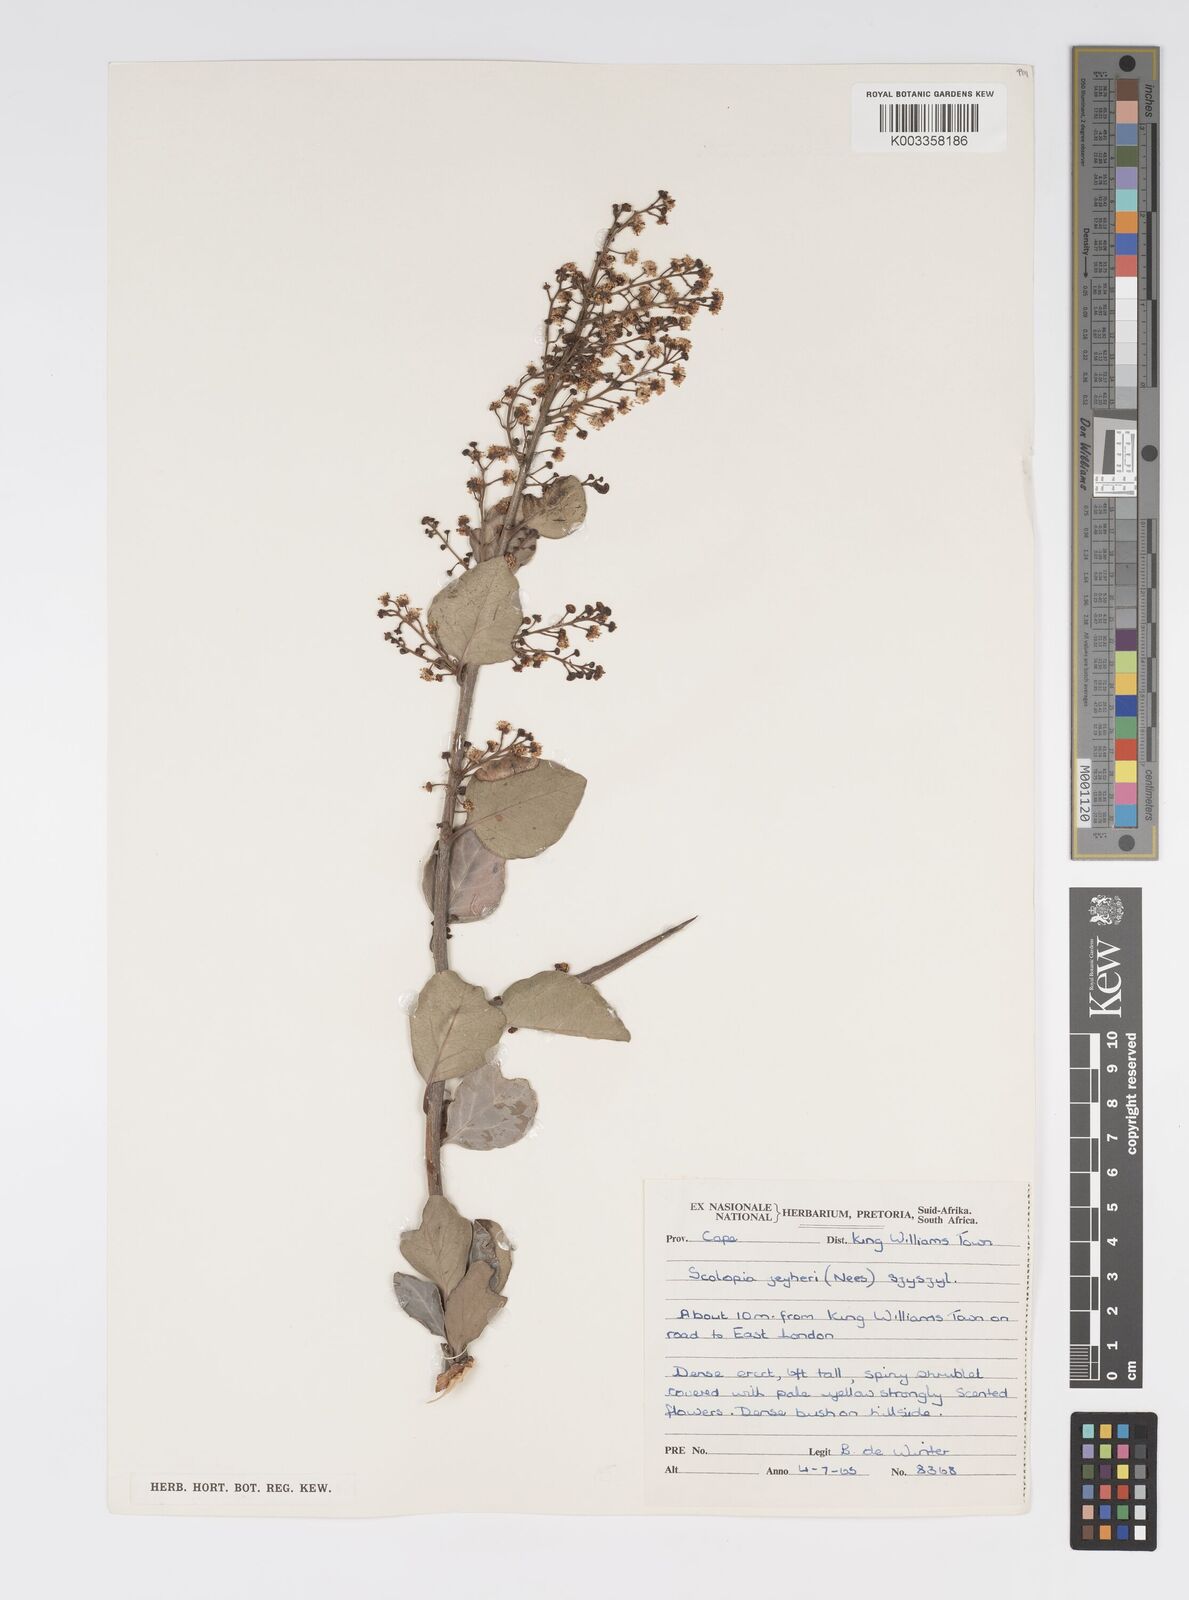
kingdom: Plantae
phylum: Tracheophyta
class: Magnoliopsida
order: Malpighiales
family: Salicaceae
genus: Scolopia
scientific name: Scolopia zeyheri
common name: Thorn pear
